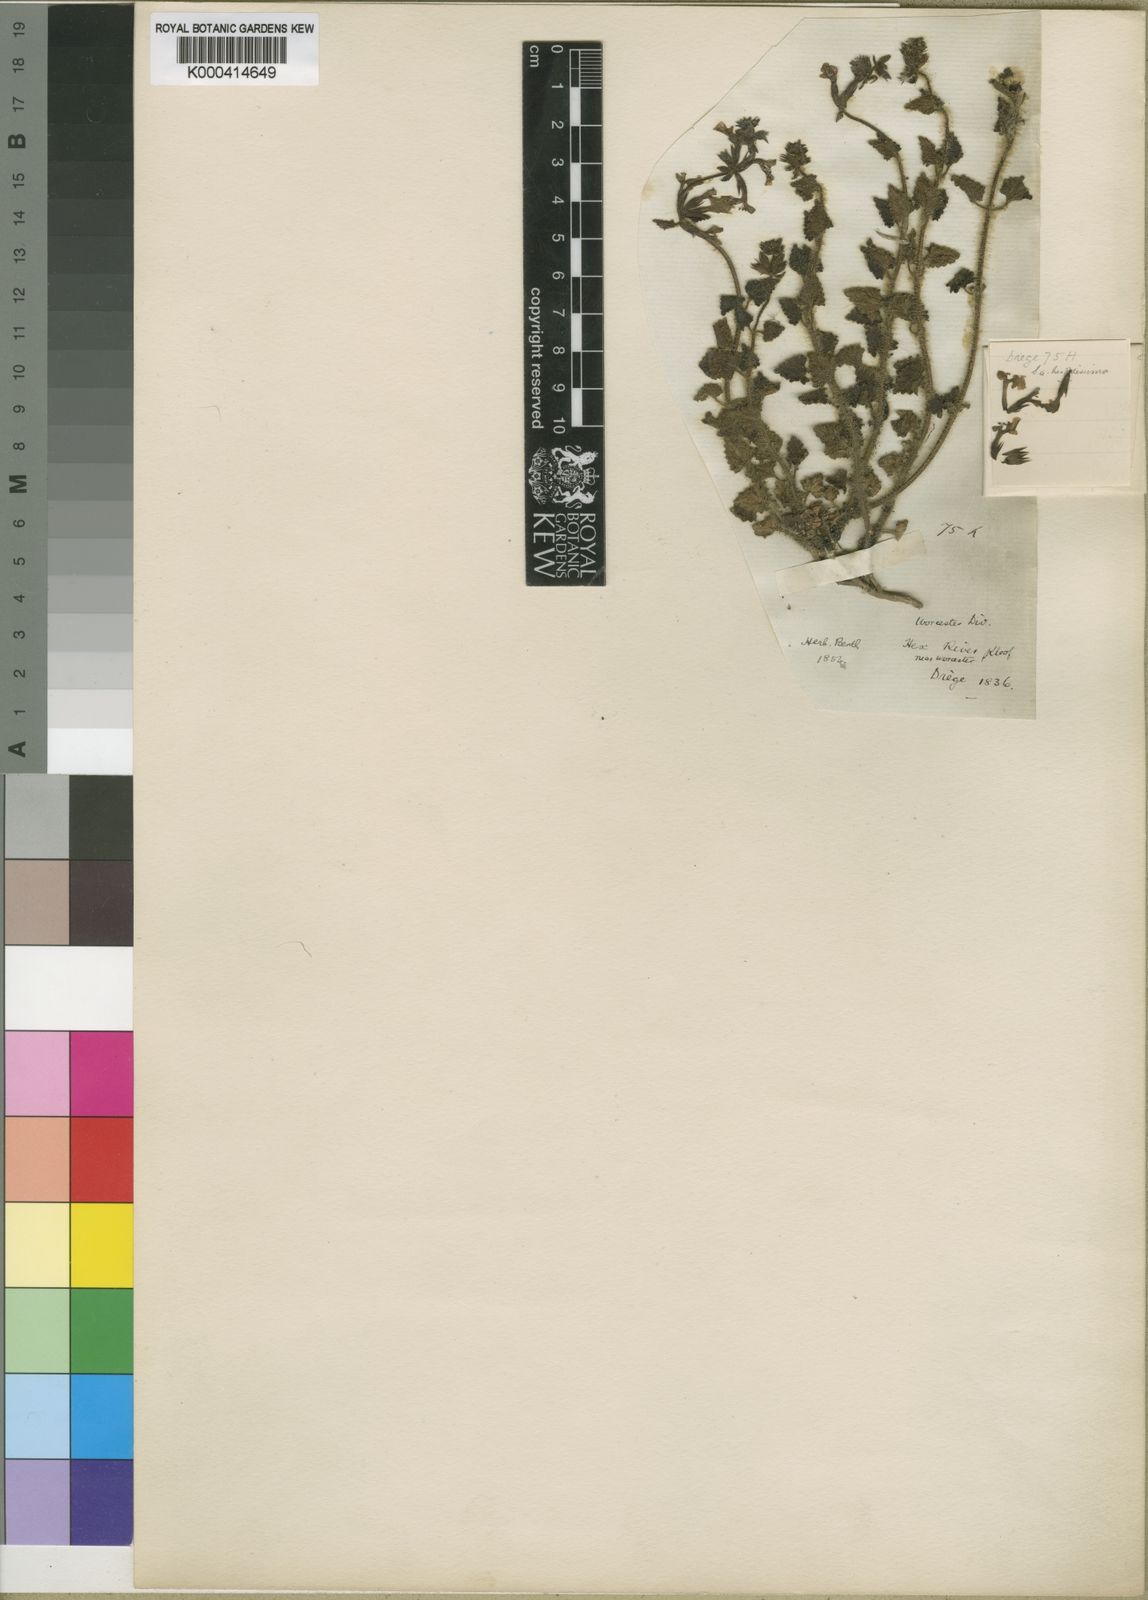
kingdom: Plantae
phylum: Tracheophyta
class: Magnoliopsida
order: Lamiales
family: Lamiaceae
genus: Stachys
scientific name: Stachys aethiopica
